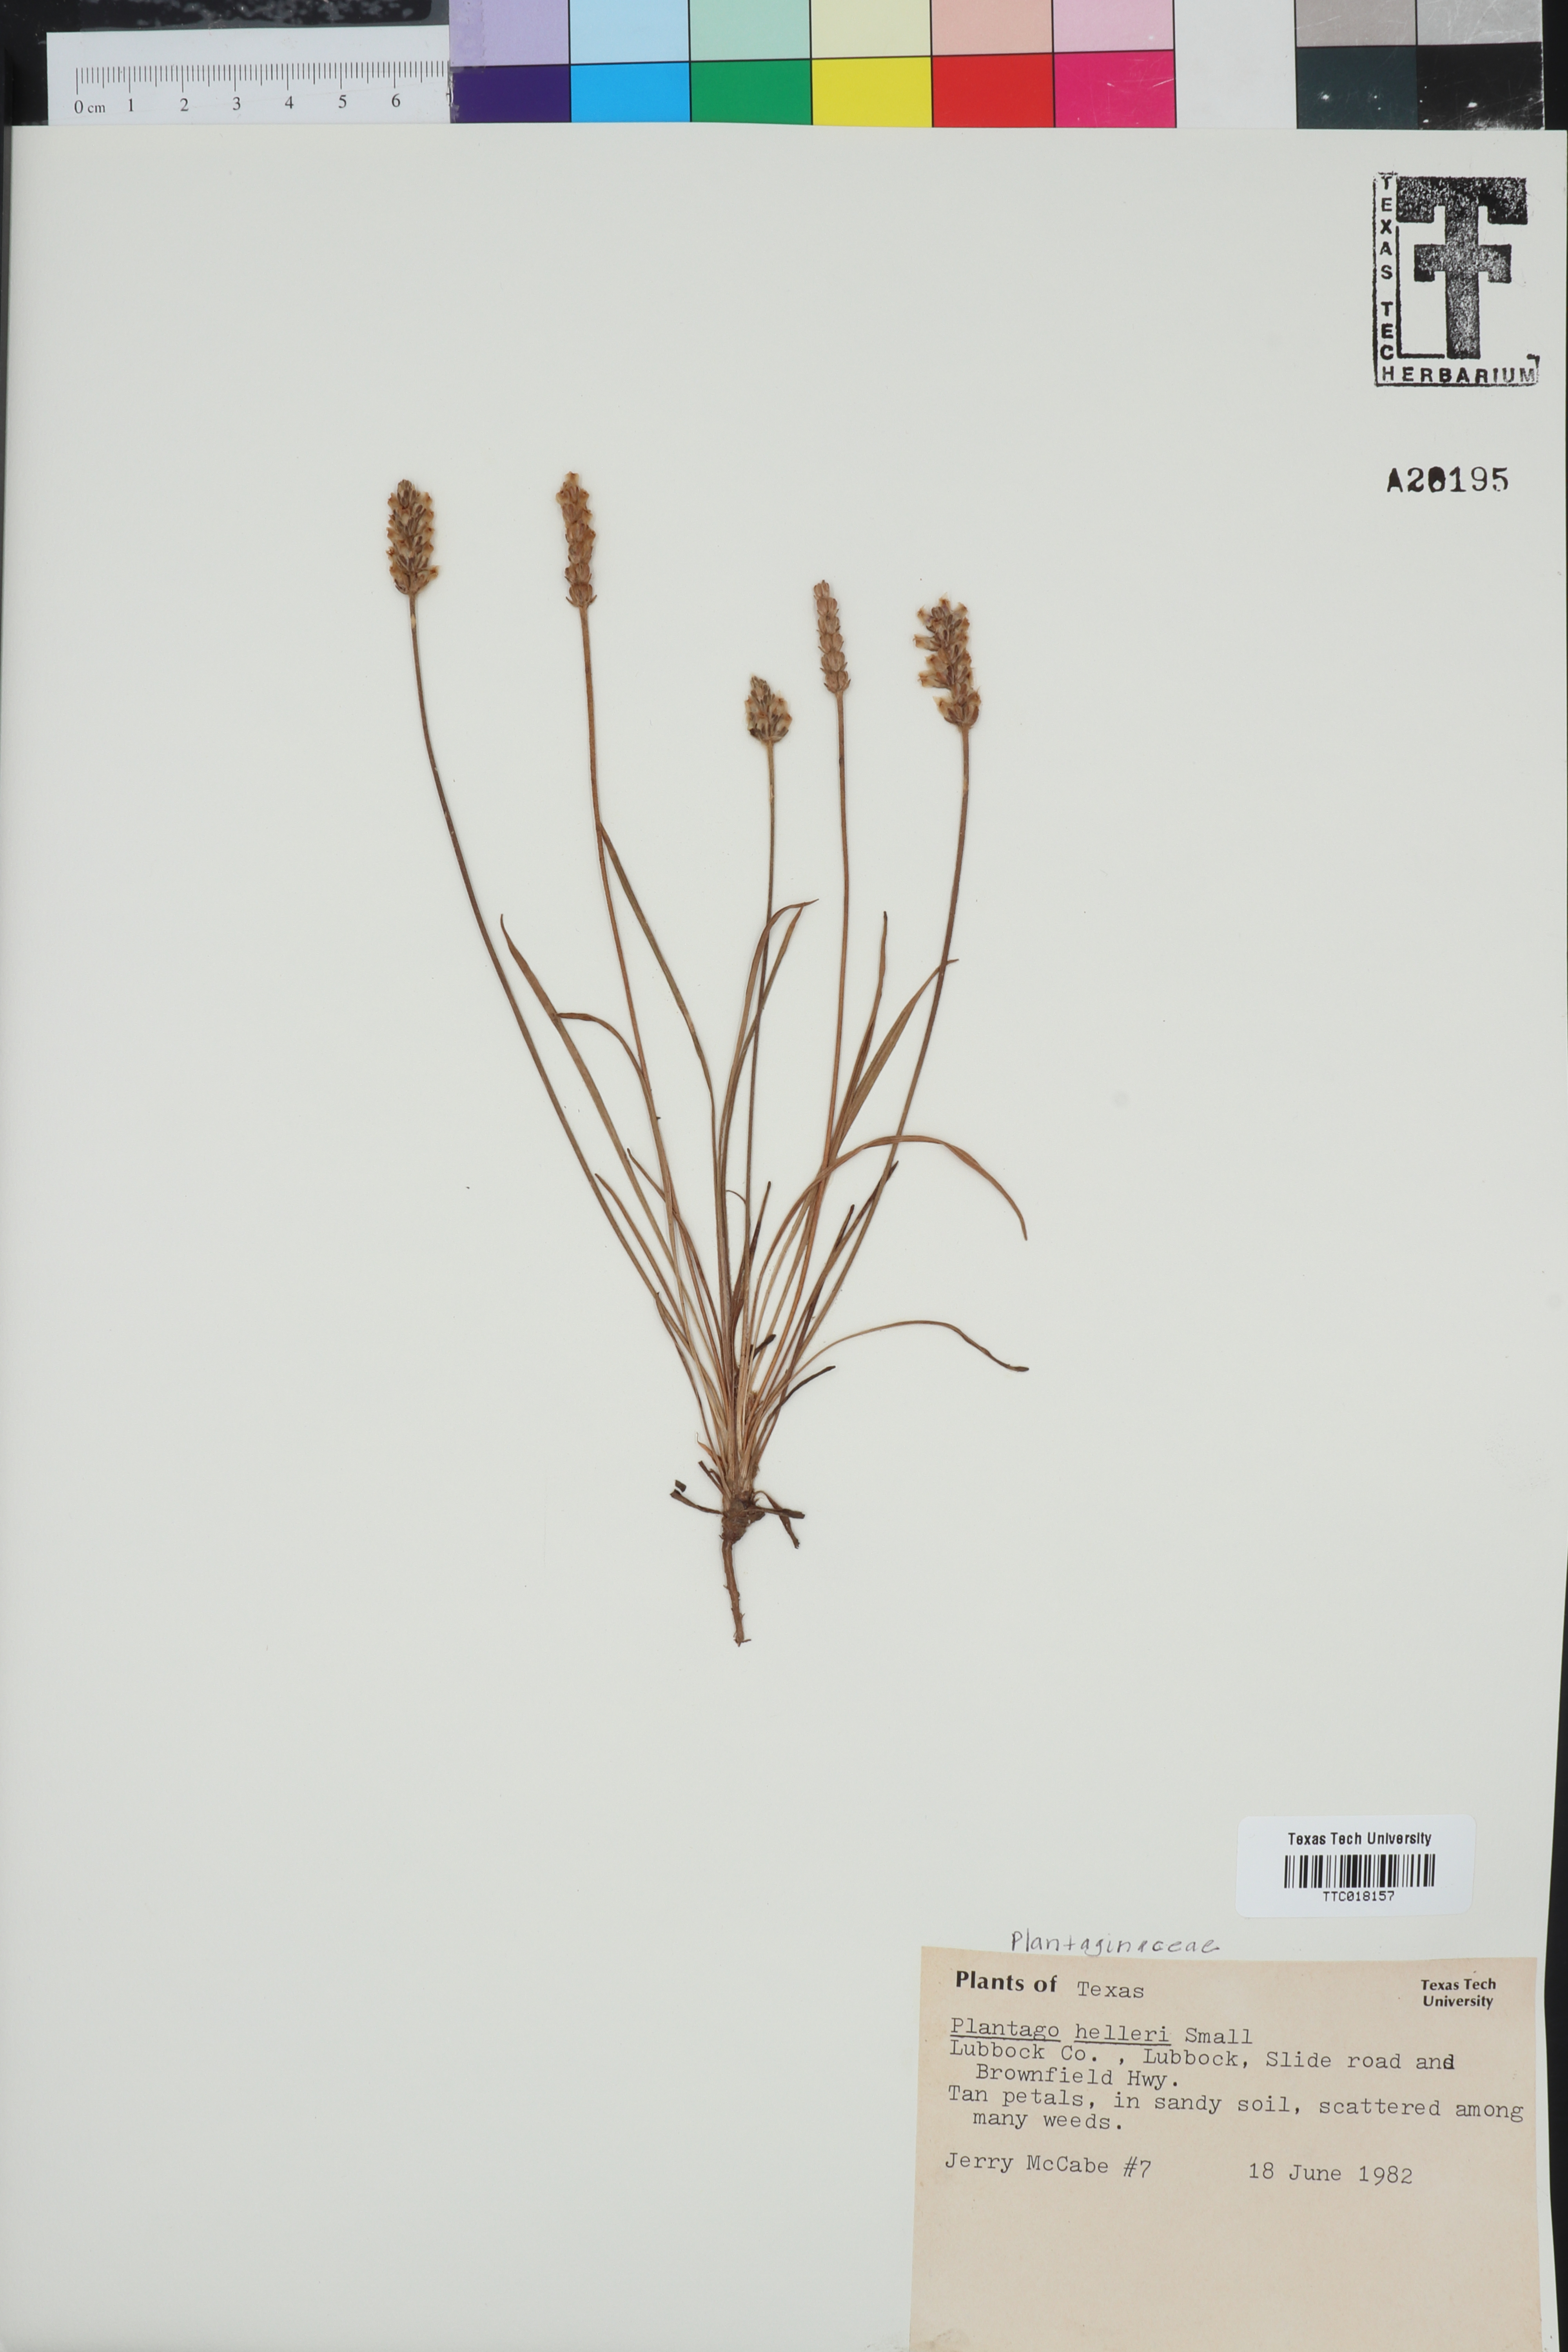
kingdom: Plantae
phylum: Tracheophyta
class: Magnoliopsida
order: Lamiales
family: Plantaginaceae
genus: Plantago
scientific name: Plantago helleri
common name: Heller's plantain
